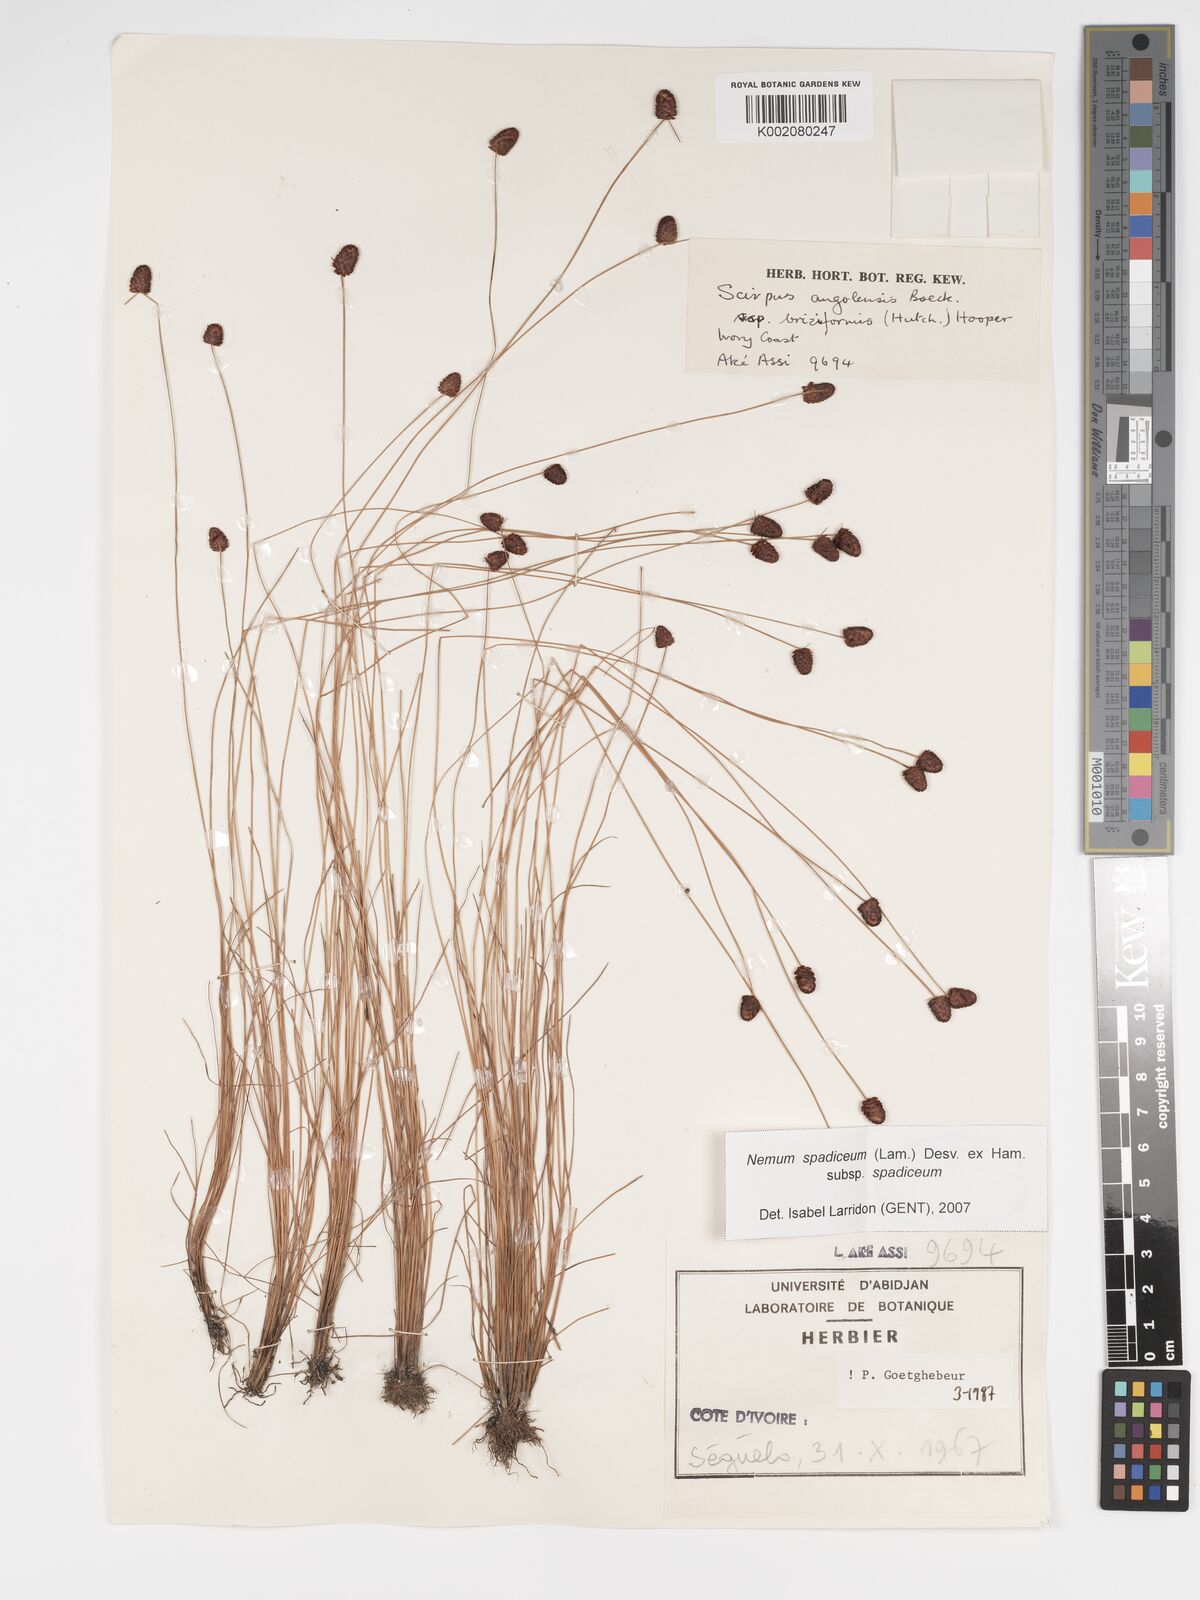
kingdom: Plantae
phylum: Tracheophyta
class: Liliopsida
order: Poales
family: Cyperaceae
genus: Bulbostylis
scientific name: Bulbostylis briziformis
